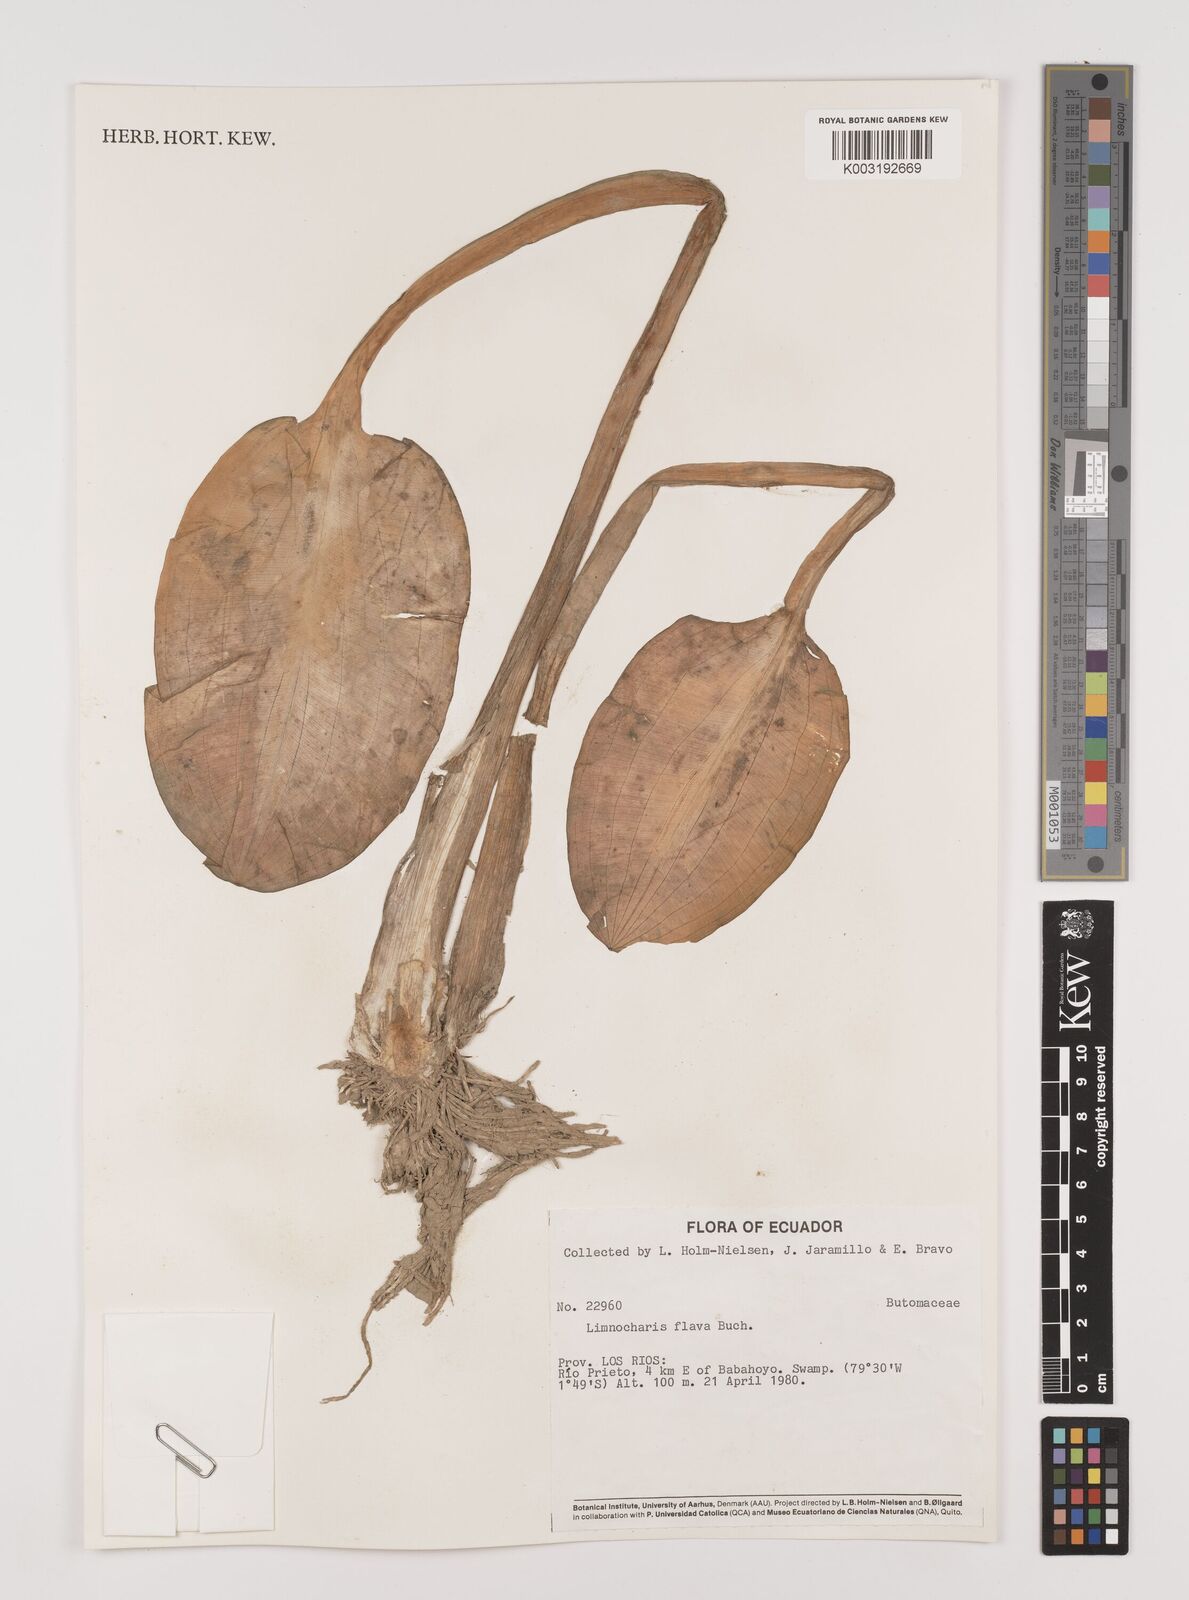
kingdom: Plantae
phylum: Tracheophyta
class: Liliopsida
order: Alismatales
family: Alismataceae
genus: Limnocharis
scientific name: Limnocharis flava
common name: Sawah-flower-rush
